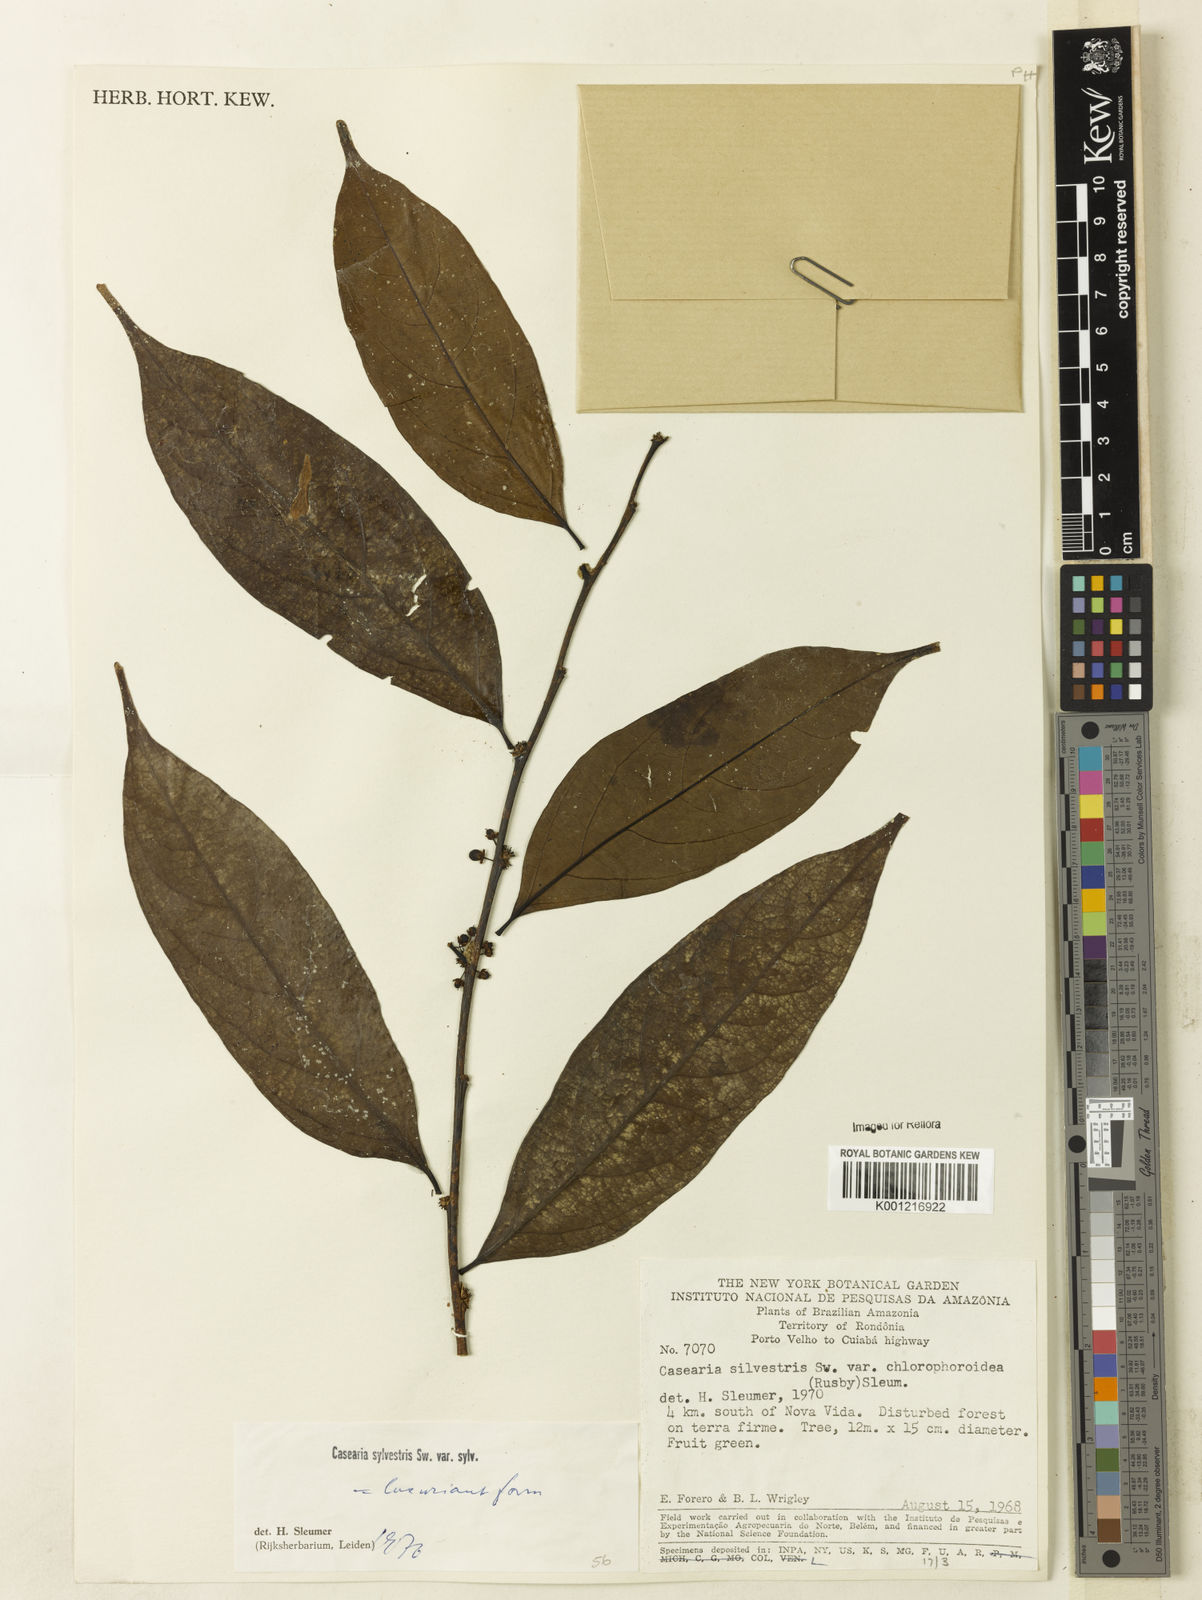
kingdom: Plantae
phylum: Tracheophyta
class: Magnoliopsida
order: Malpighiales
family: Salicaceae
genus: Casearia
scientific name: Casearia sylvestris
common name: Wild sage
